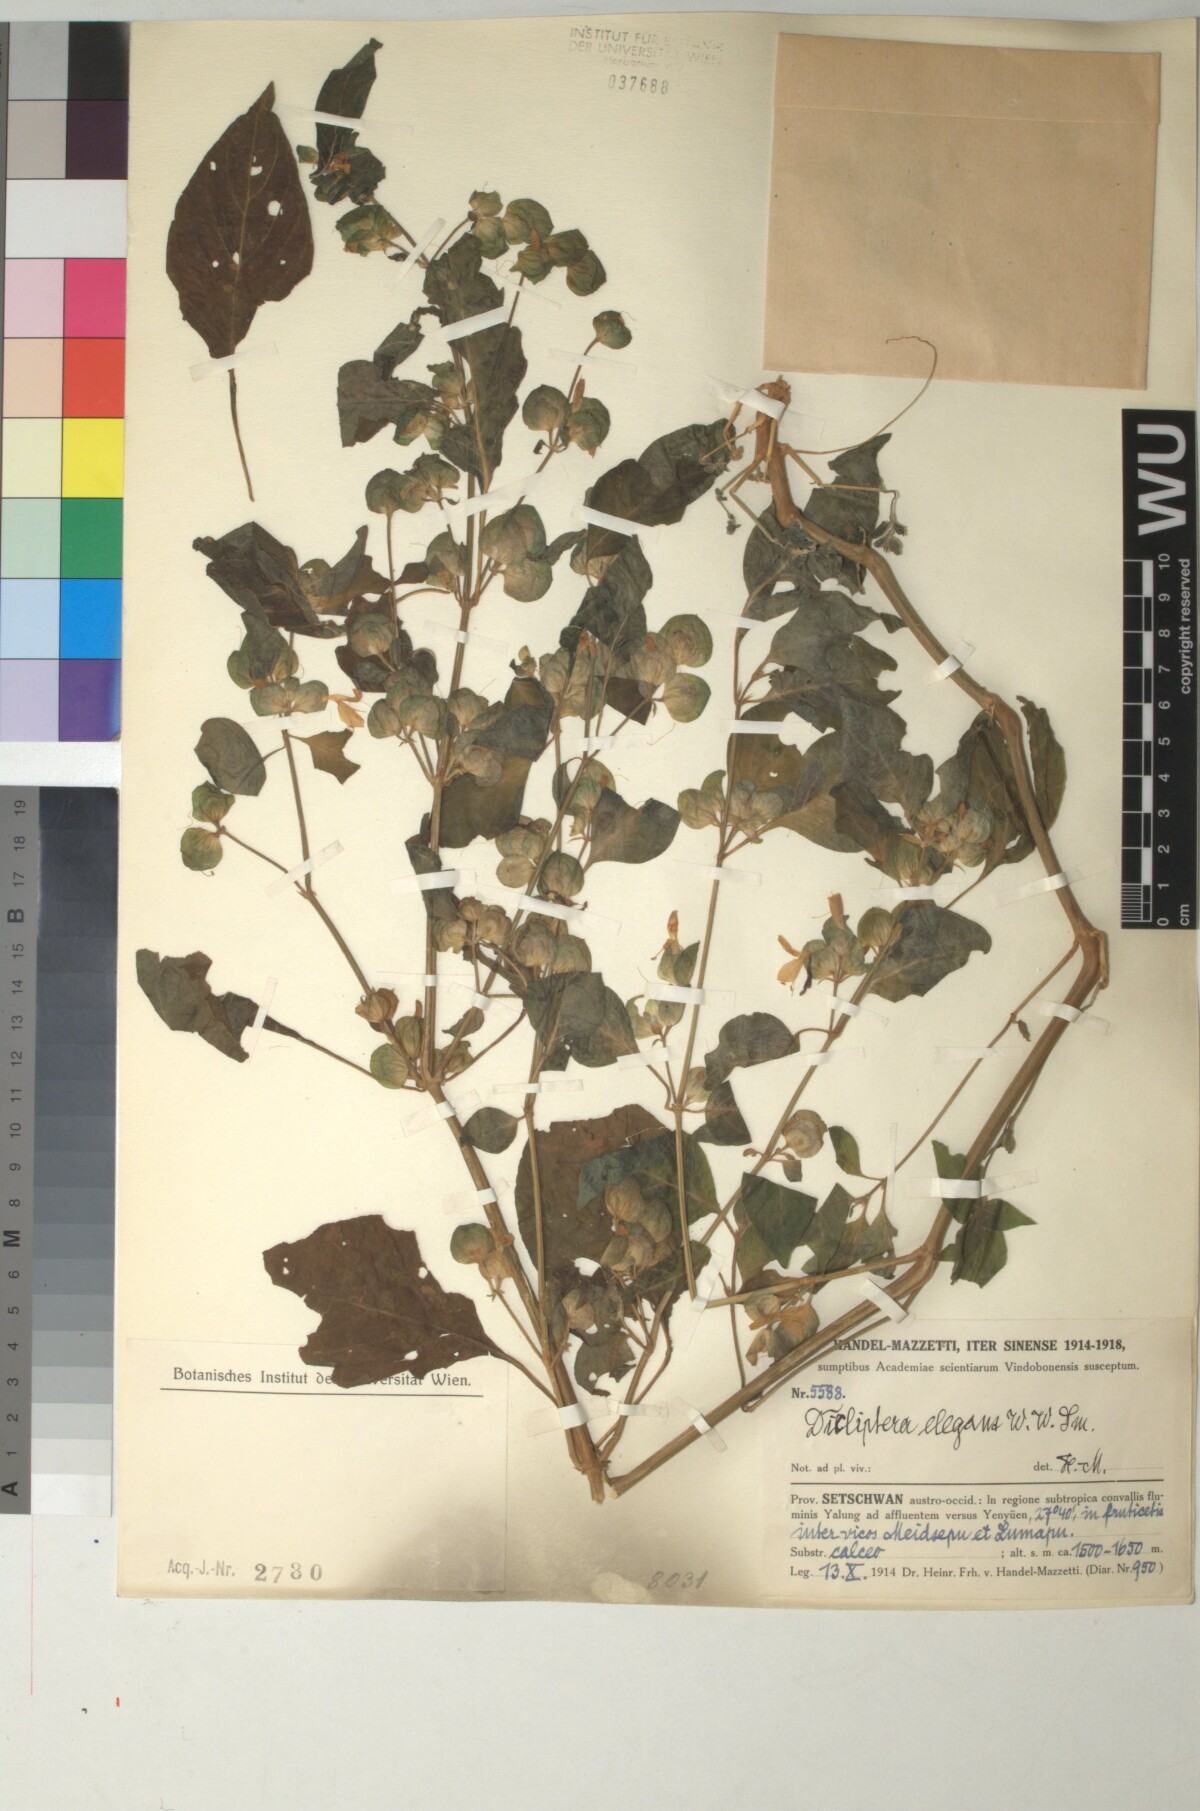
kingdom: Plantae
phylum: Tracheophyta
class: Magnoliopsida
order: Lamiales
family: Acanthaceae
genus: Dicliptera
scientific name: Dicliptera elegans
